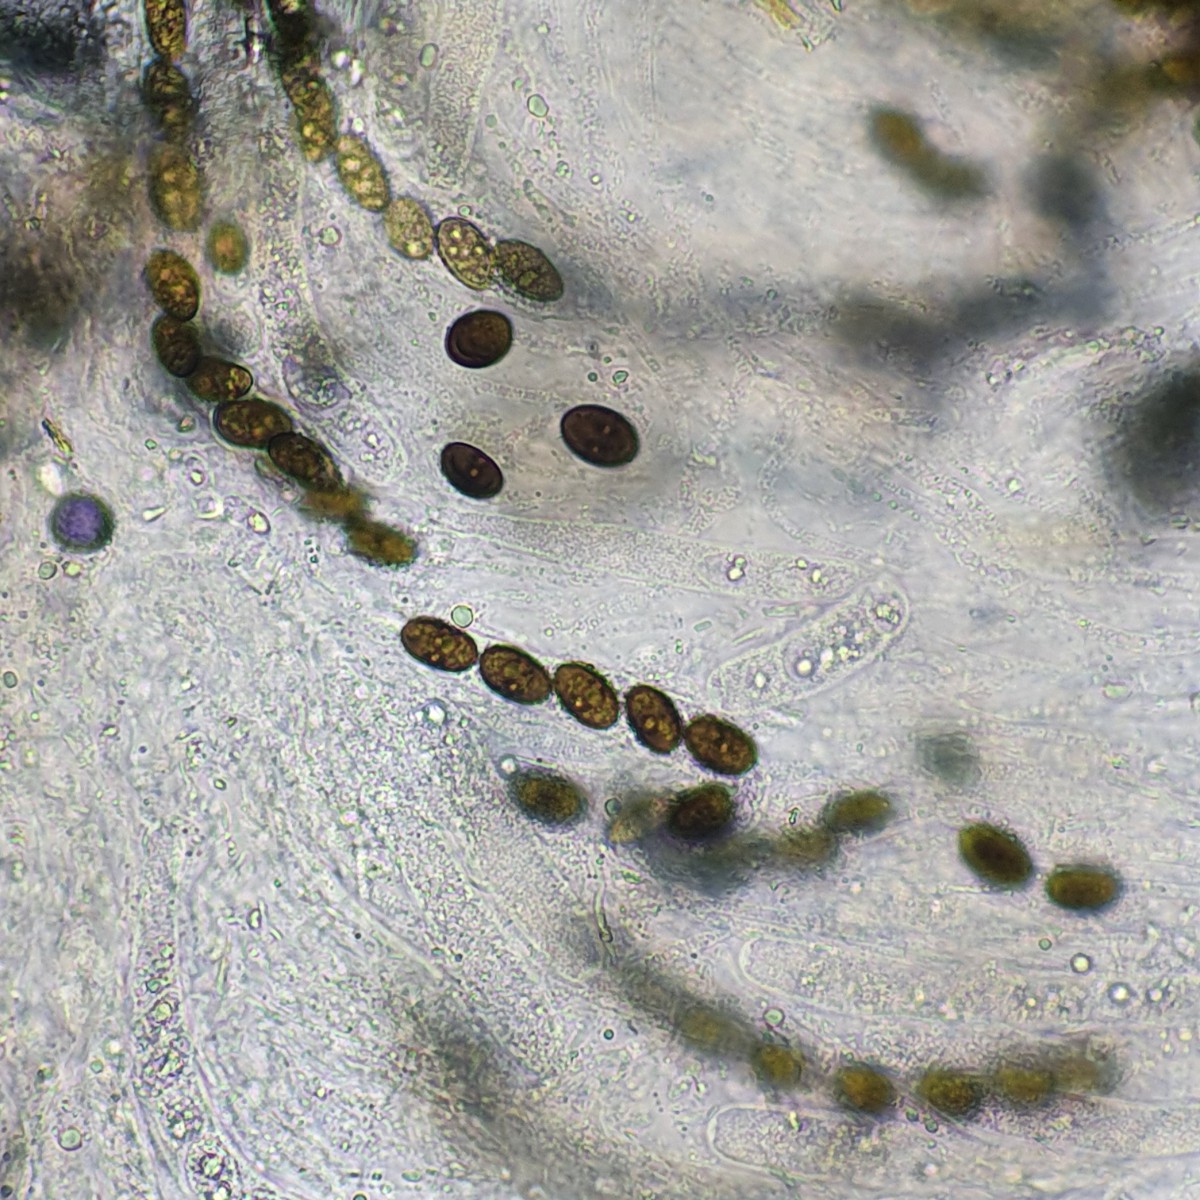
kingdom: Fungi
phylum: Ascomycota
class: Sordariomycetes
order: Amphisphaeriales
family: Amphisphaeriaceae
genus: Amphisphaerella
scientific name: Amphisphaerella xylostei
